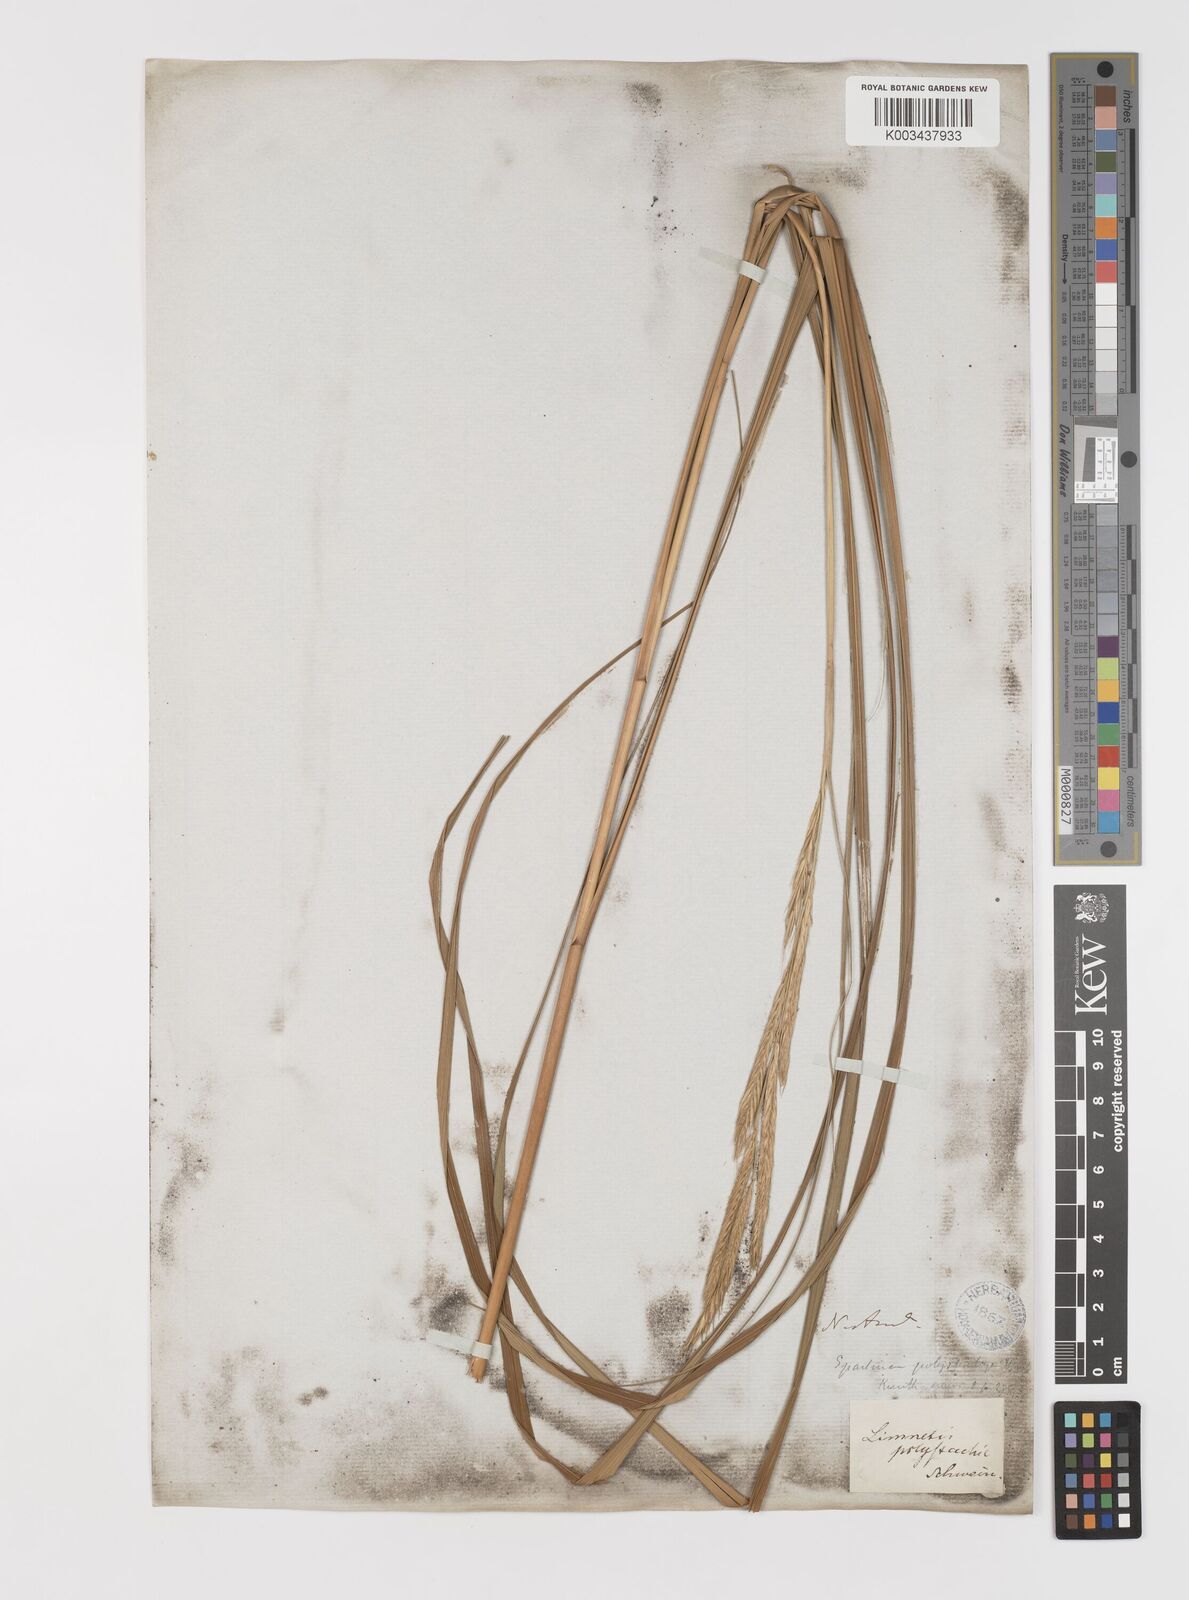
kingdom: Plantae
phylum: Tracheophyta
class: Liliopsida
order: Poales
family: Poaceae
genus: Sporobolus
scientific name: Sporobolus michauxianus
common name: Freshwater cordgrass
